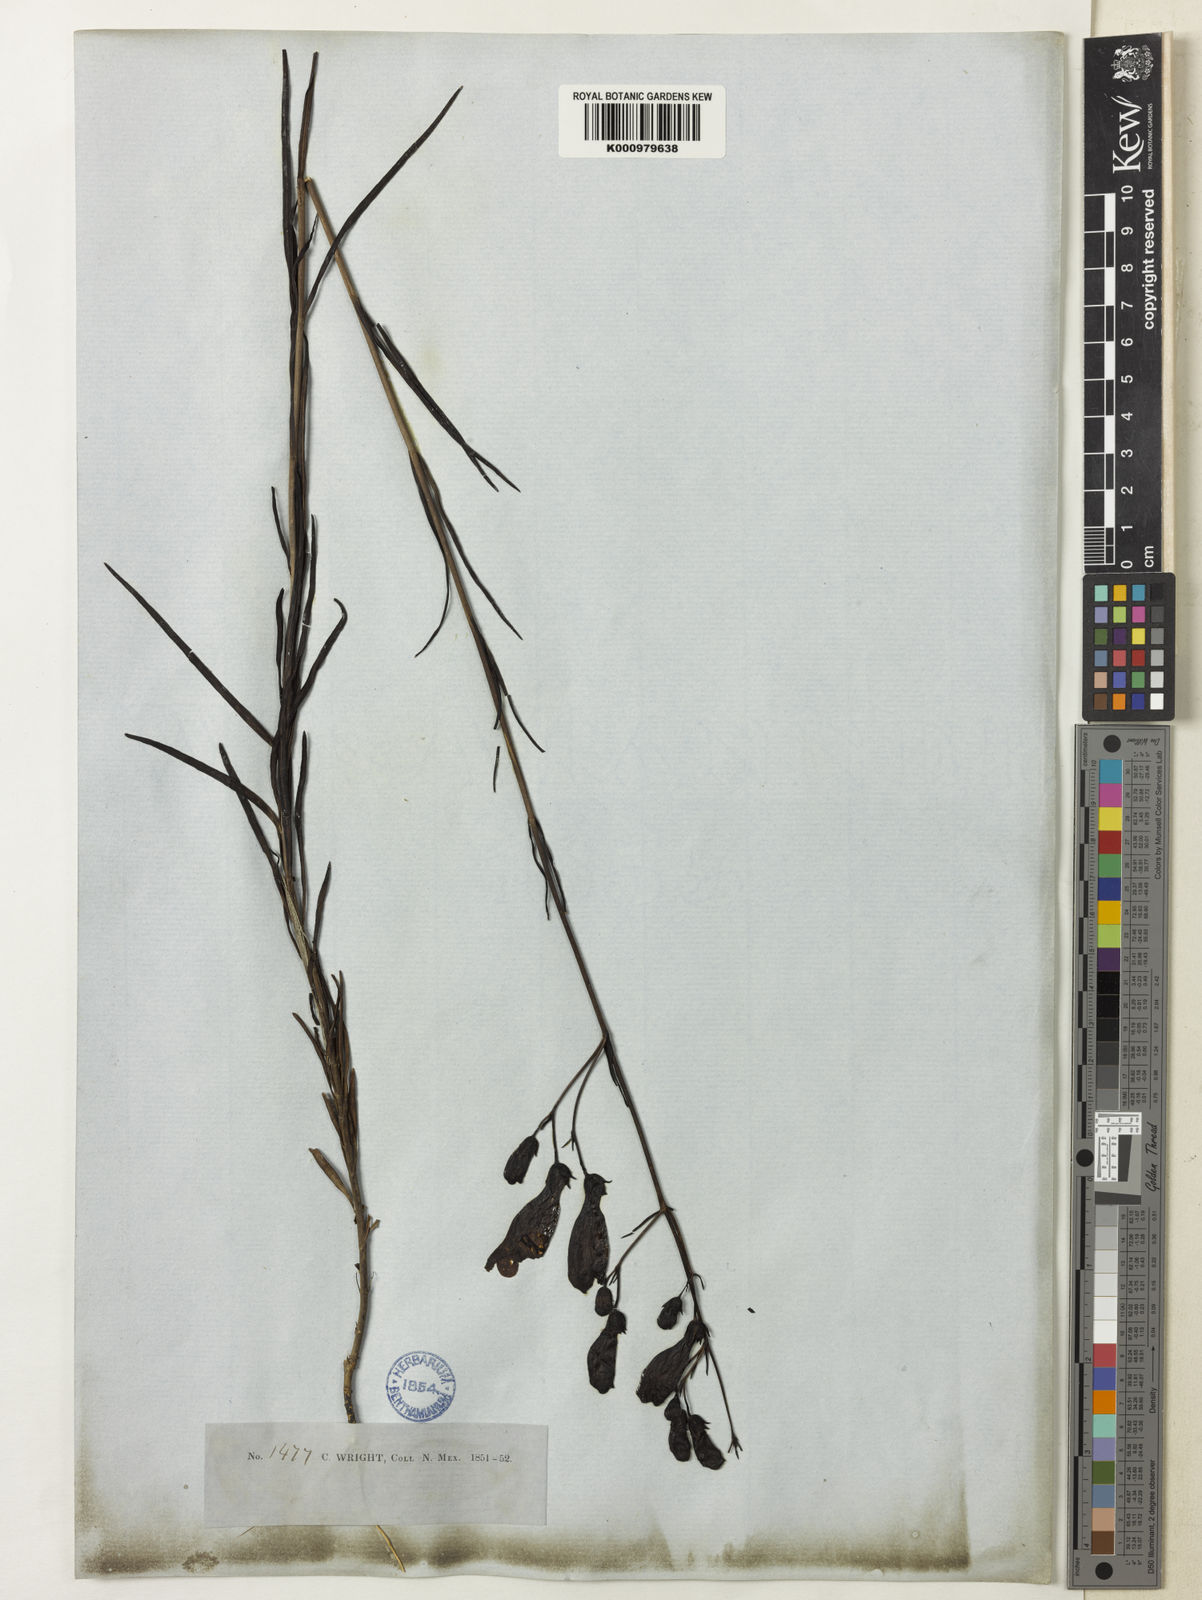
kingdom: Plantae
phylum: Tracheophyta
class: Magnoliopsida
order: Lamiales
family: Plantaginaceae
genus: Penstemon
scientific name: Penstemon stenophyllus
